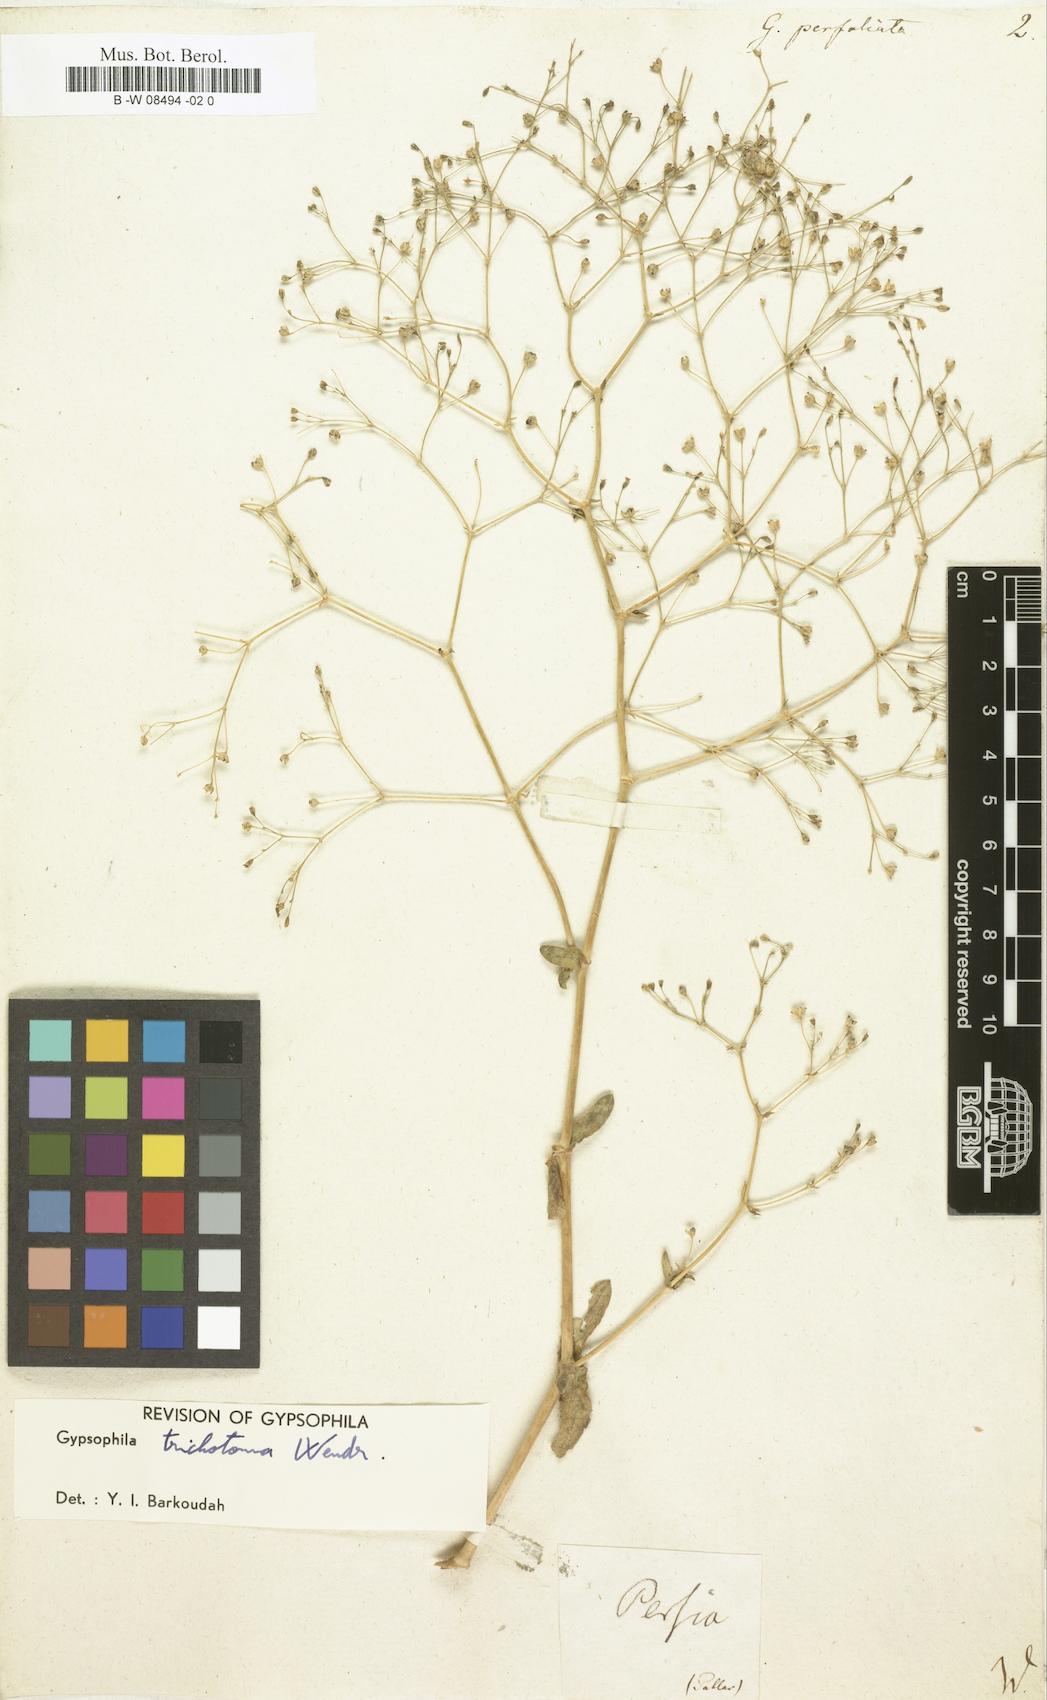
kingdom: Plantae
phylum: Tracheophyta
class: Magnoliopsida
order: Caryophyllales
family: Caryophyllaceae
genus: Gypsophila
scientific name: Gypsophila perfoliata
